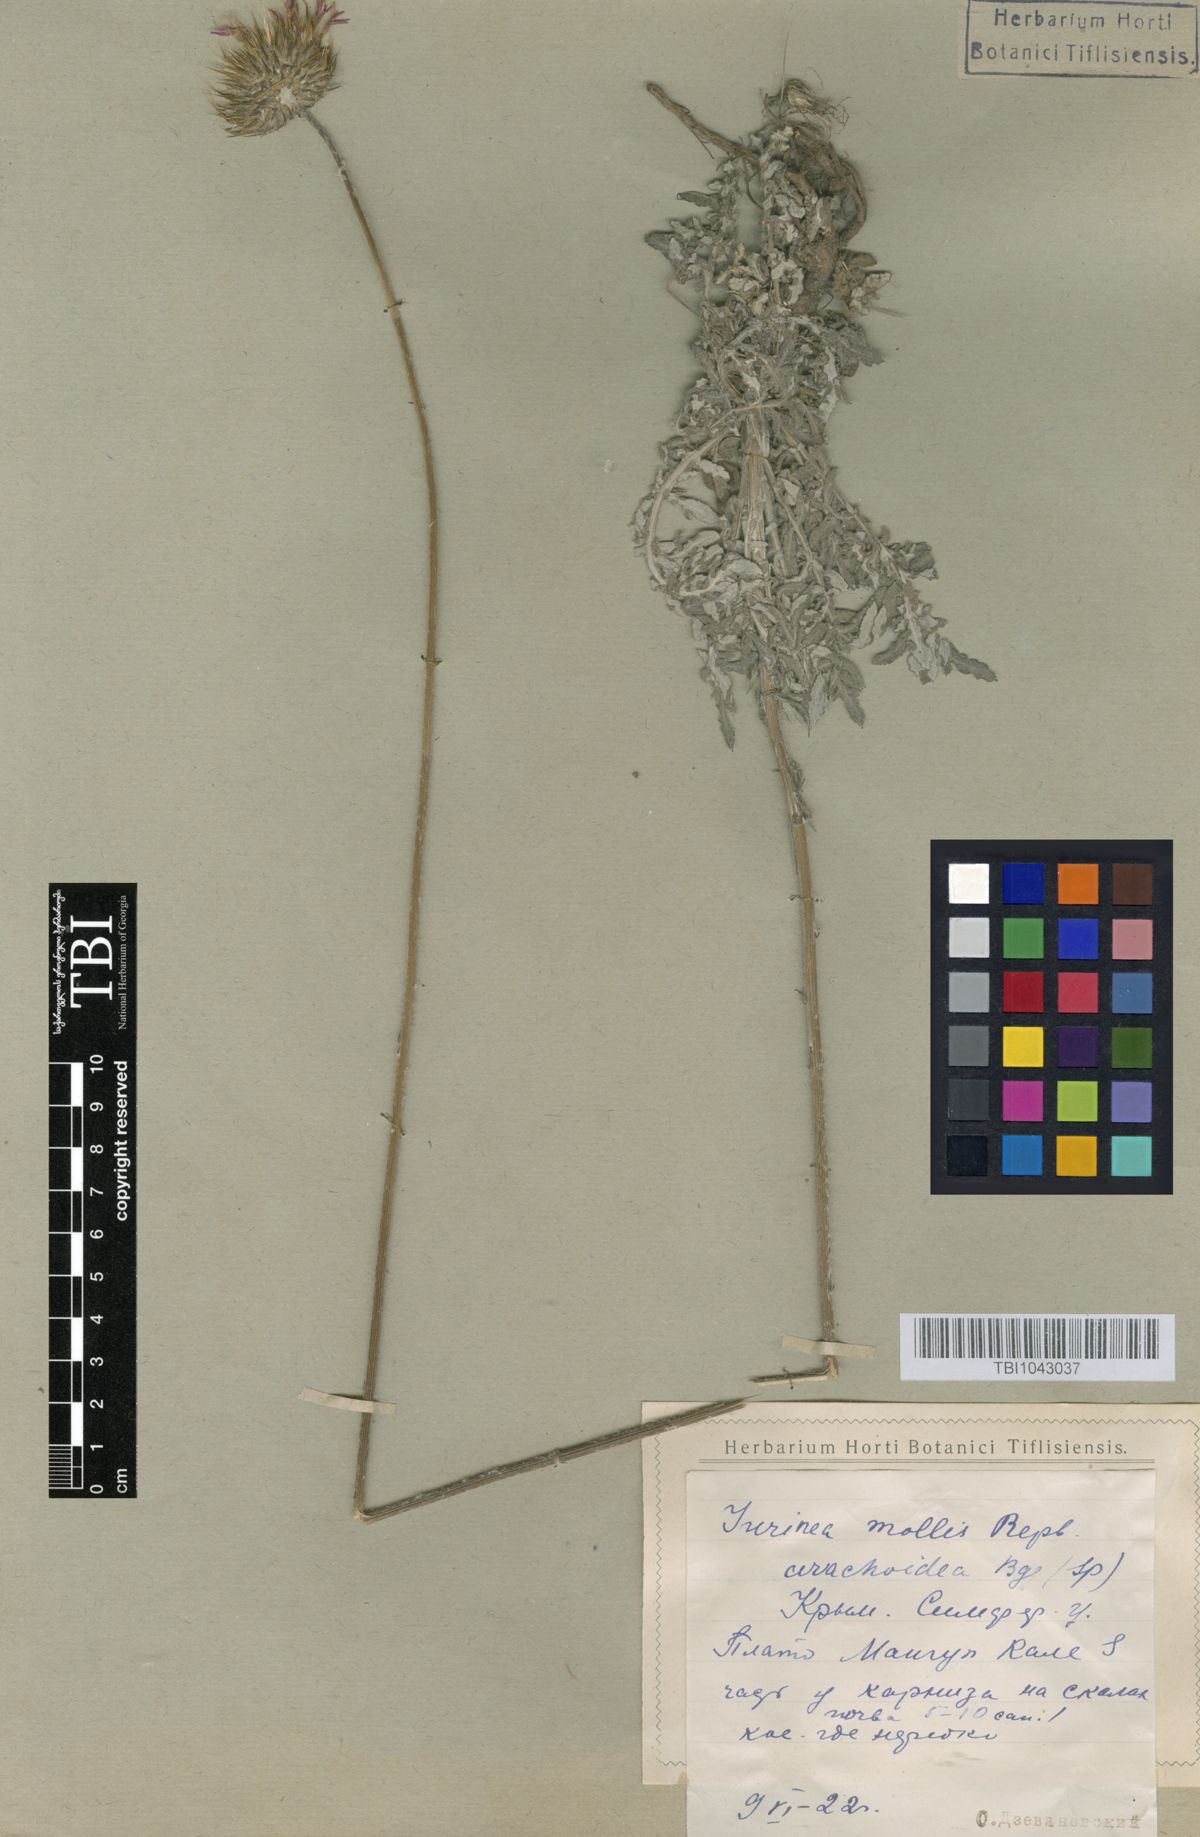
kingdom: Plantae
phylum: Tracheophyta
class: Magnoliopsida
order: Asterales
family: Asteraceae
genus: Jurinea
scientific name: Jurinea roegneri
